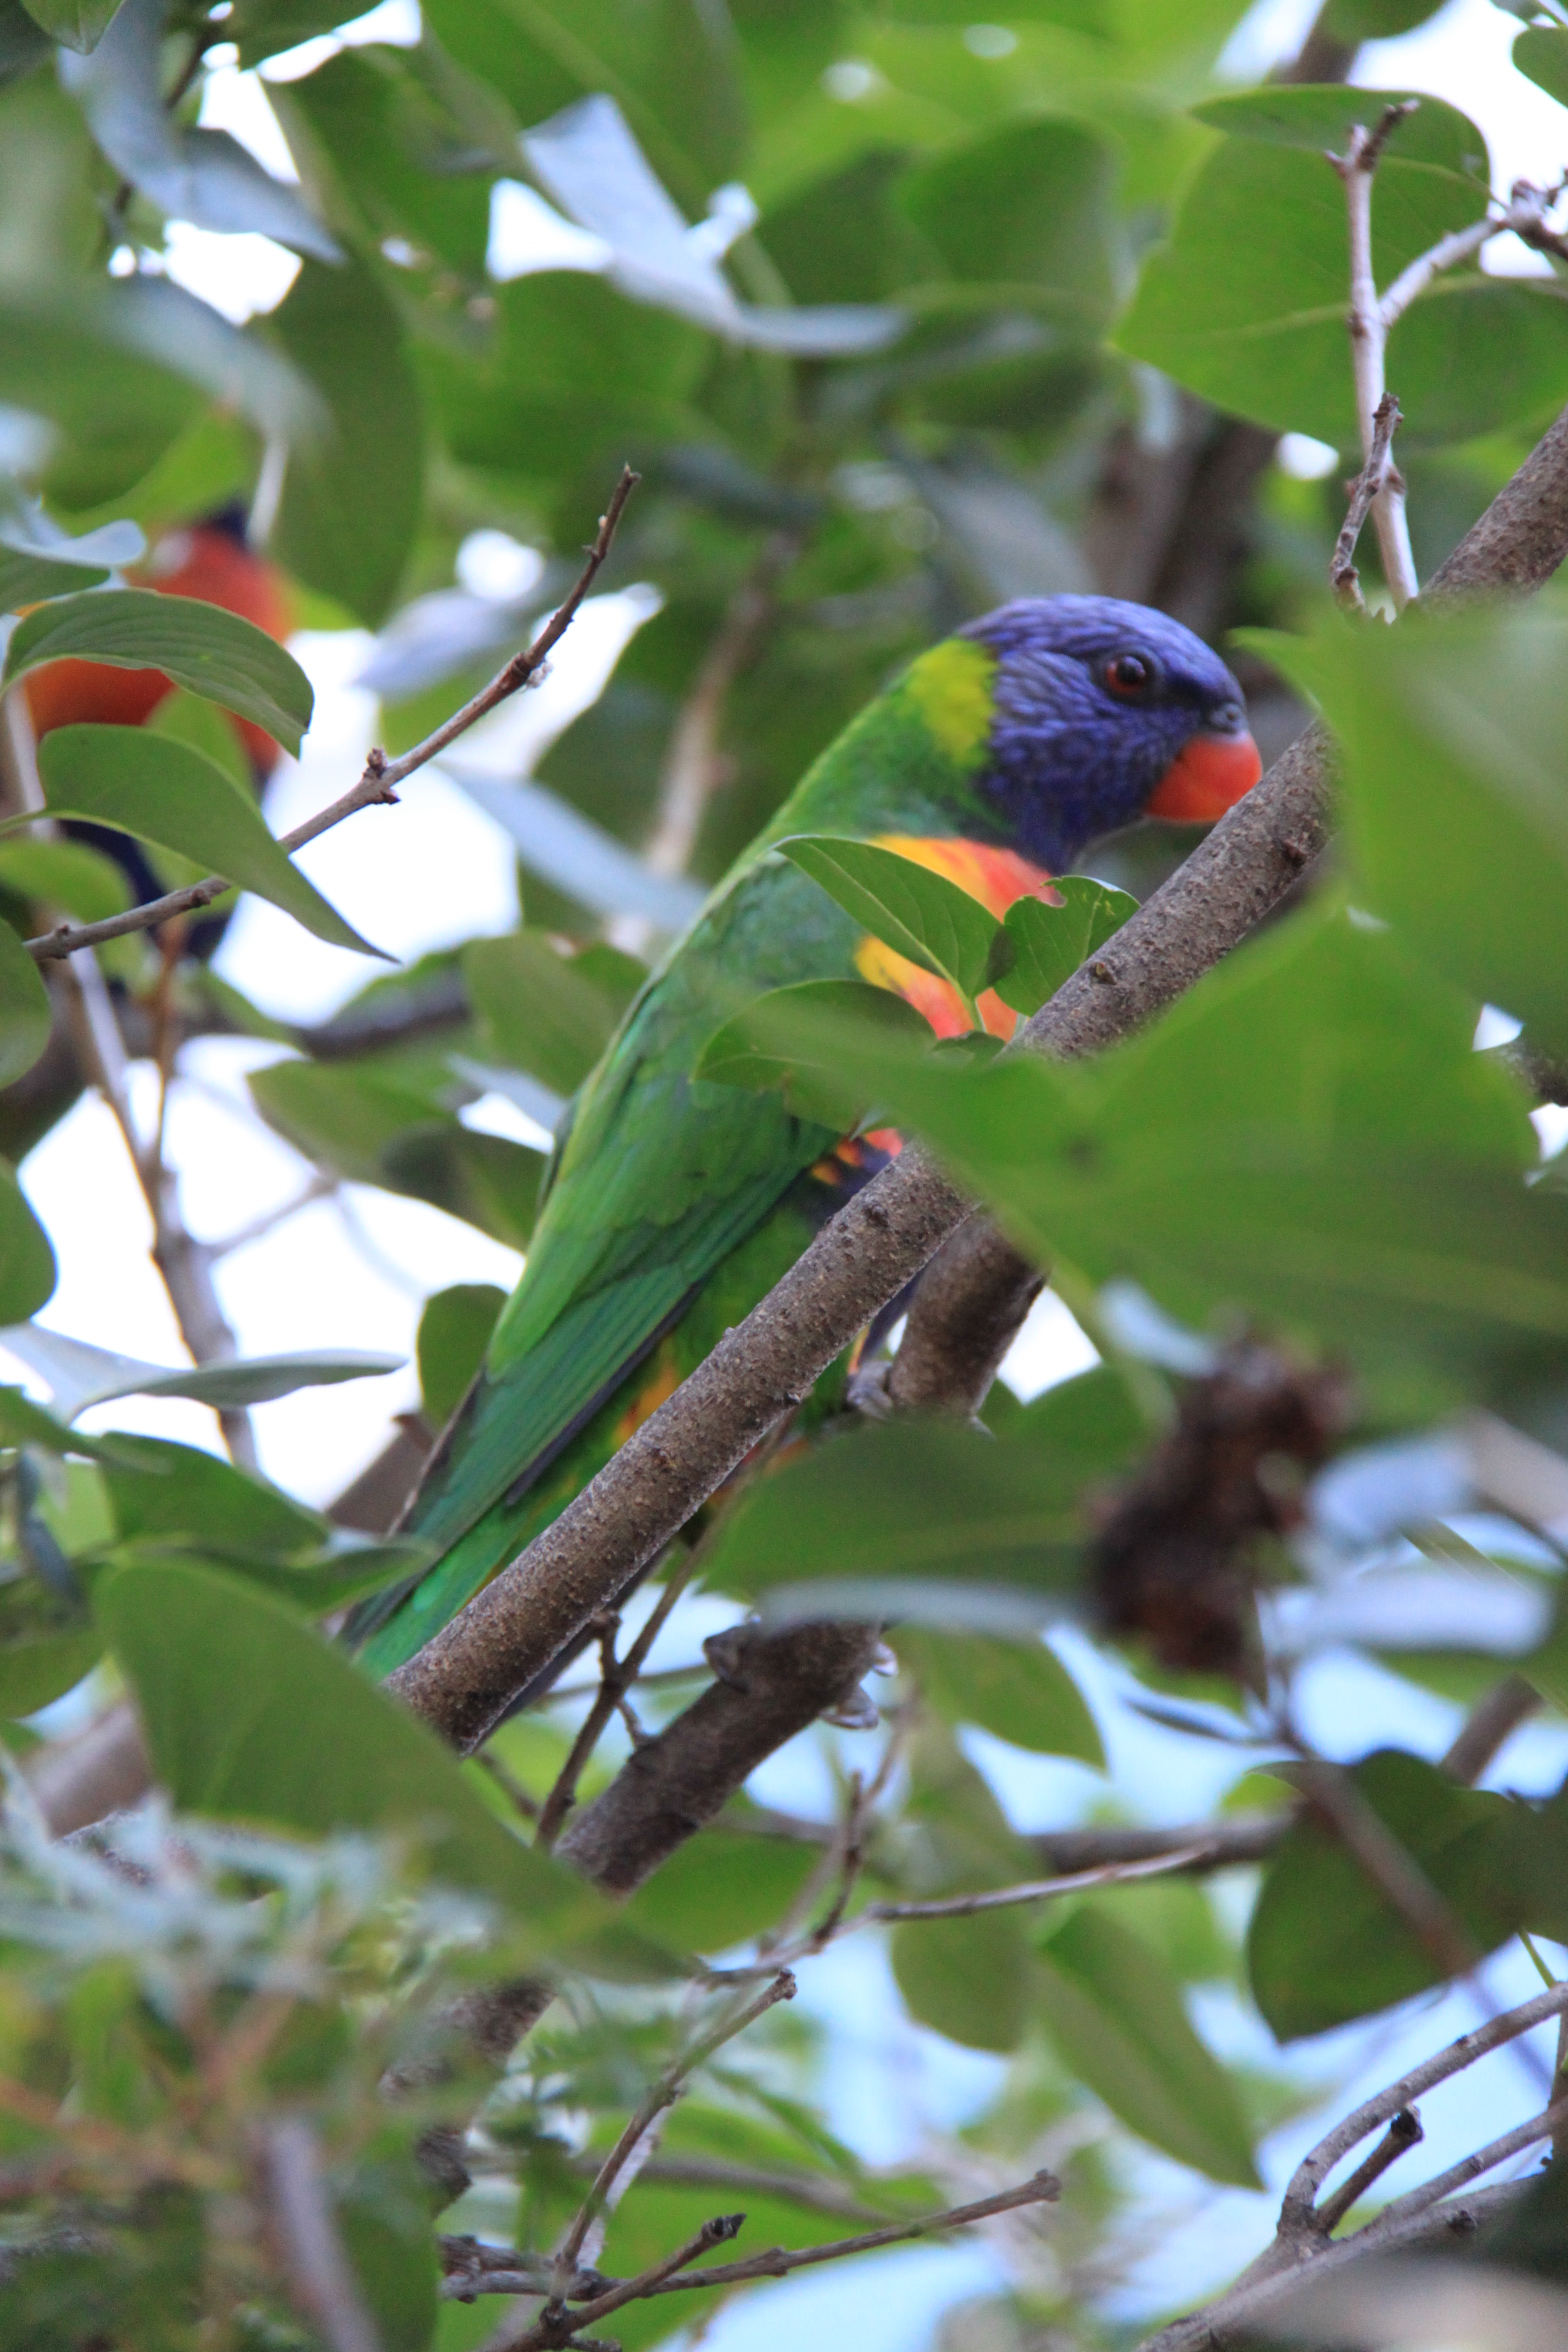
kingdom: Animalia
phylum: Chordata
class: Aves
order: Psittaciformes
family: Psittacidae
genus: Trichoglossus
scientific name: Trichoglossus haematodus
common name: Coconut lorikeet
